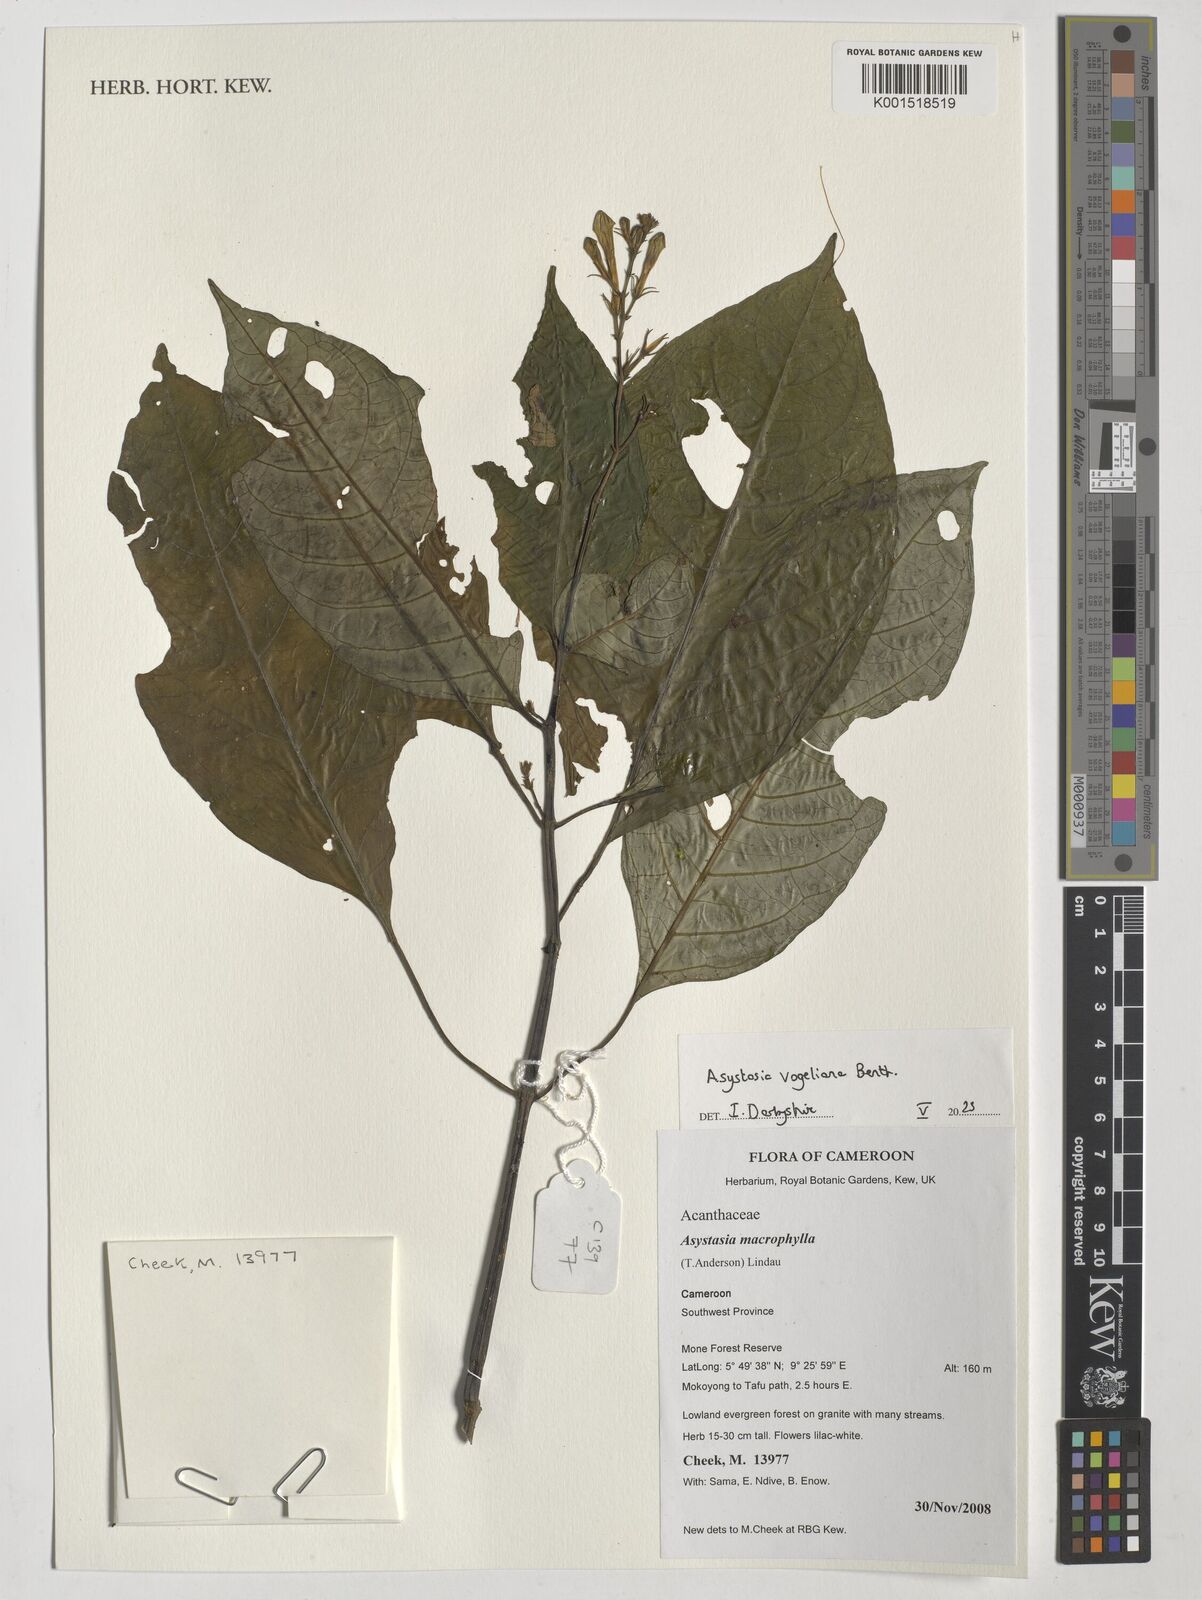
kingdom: Plantae
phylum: Tracheophyta
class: Magnoliopsida
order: Lamiales
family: Acanthaceae
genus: Asystasia
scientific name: Asystasia vogeliana
